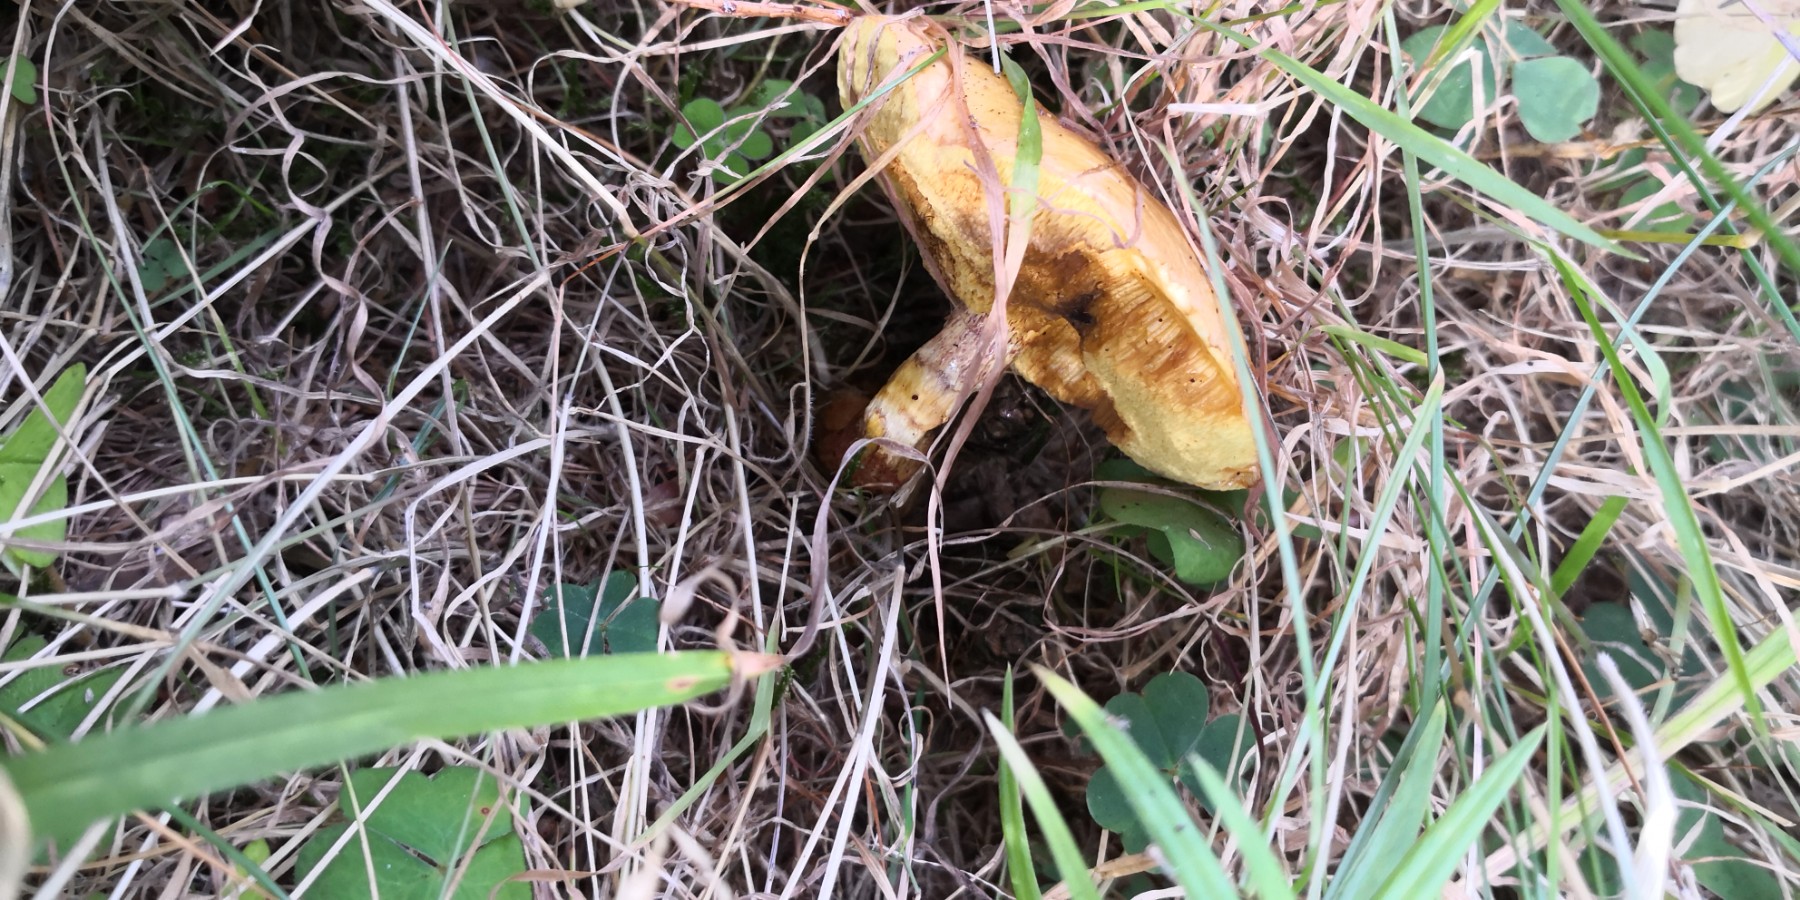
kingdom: Fungi
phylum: Basidiomycota
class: Agaricomycetes
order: Boletales
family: Suillaceae
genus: Suillus
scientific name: Suillus grevillei
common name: lærke-slimrørhat
